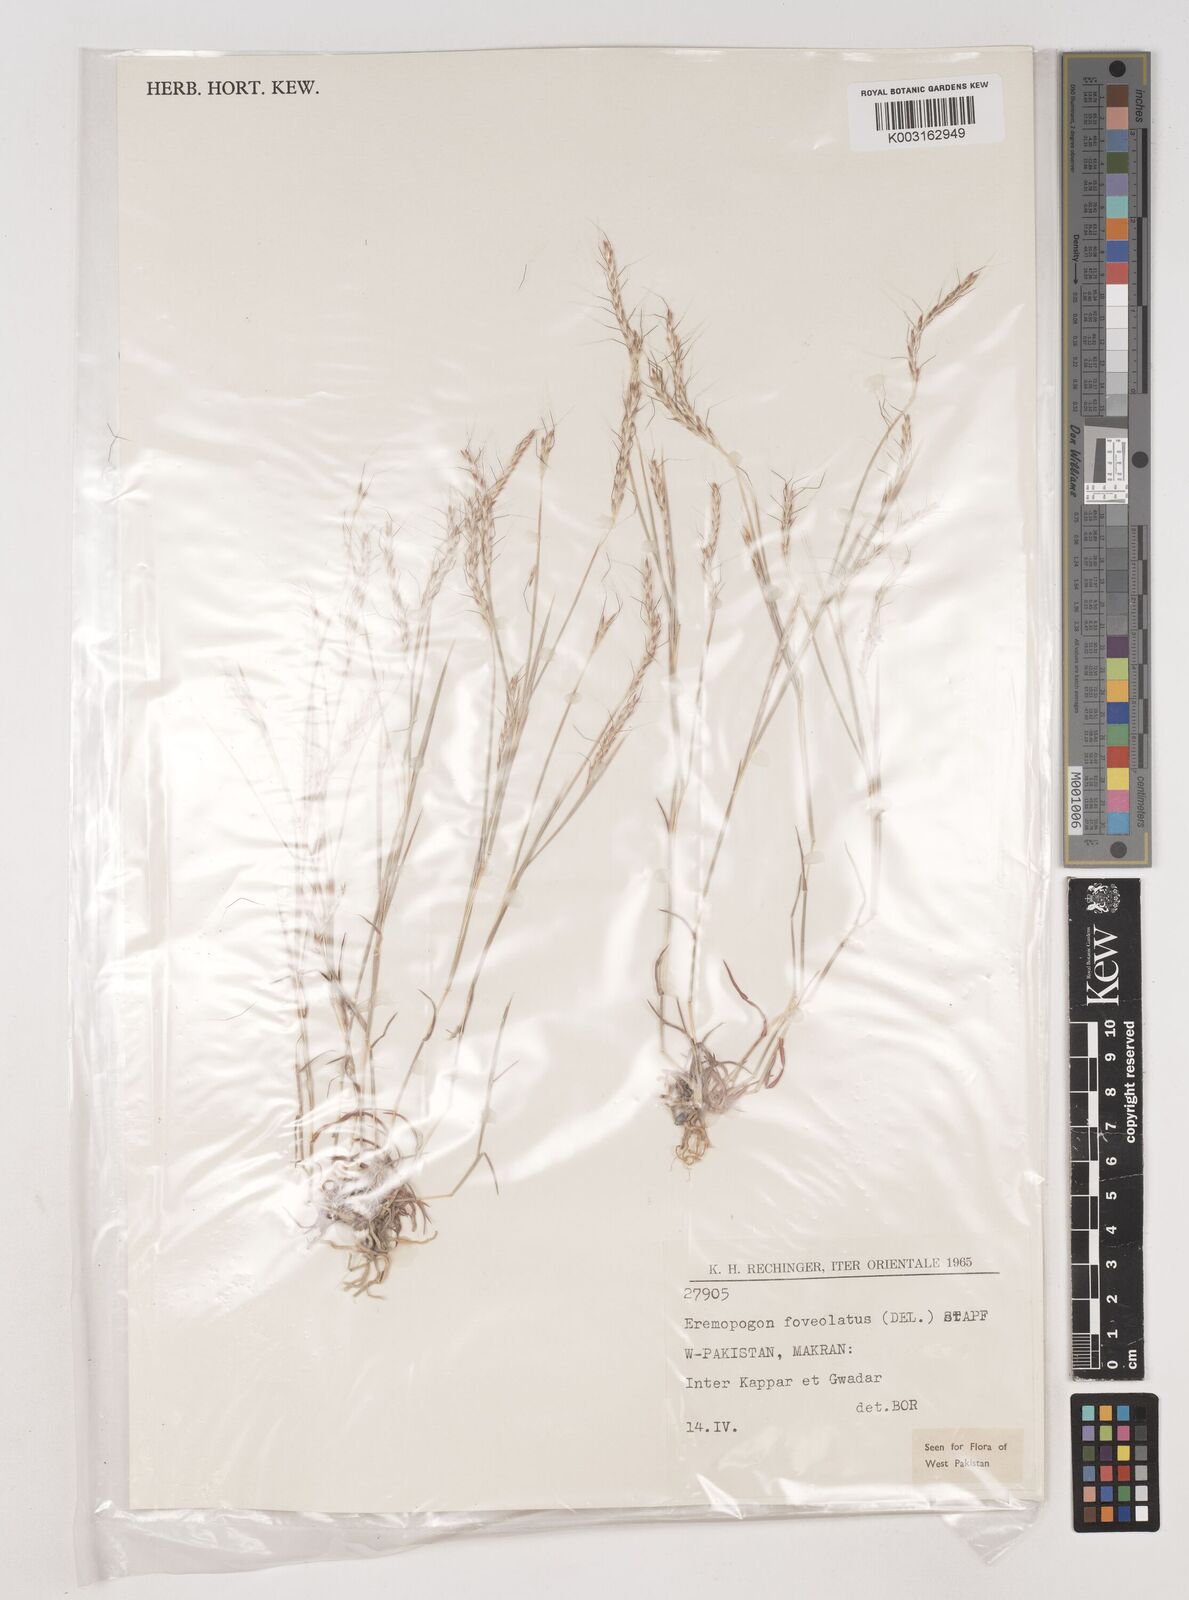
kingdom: Plantae
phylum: Tracheophyta
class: Liliopsida
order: Poales
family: Poaceae
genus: Dichanthium
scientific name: Dichanthium
